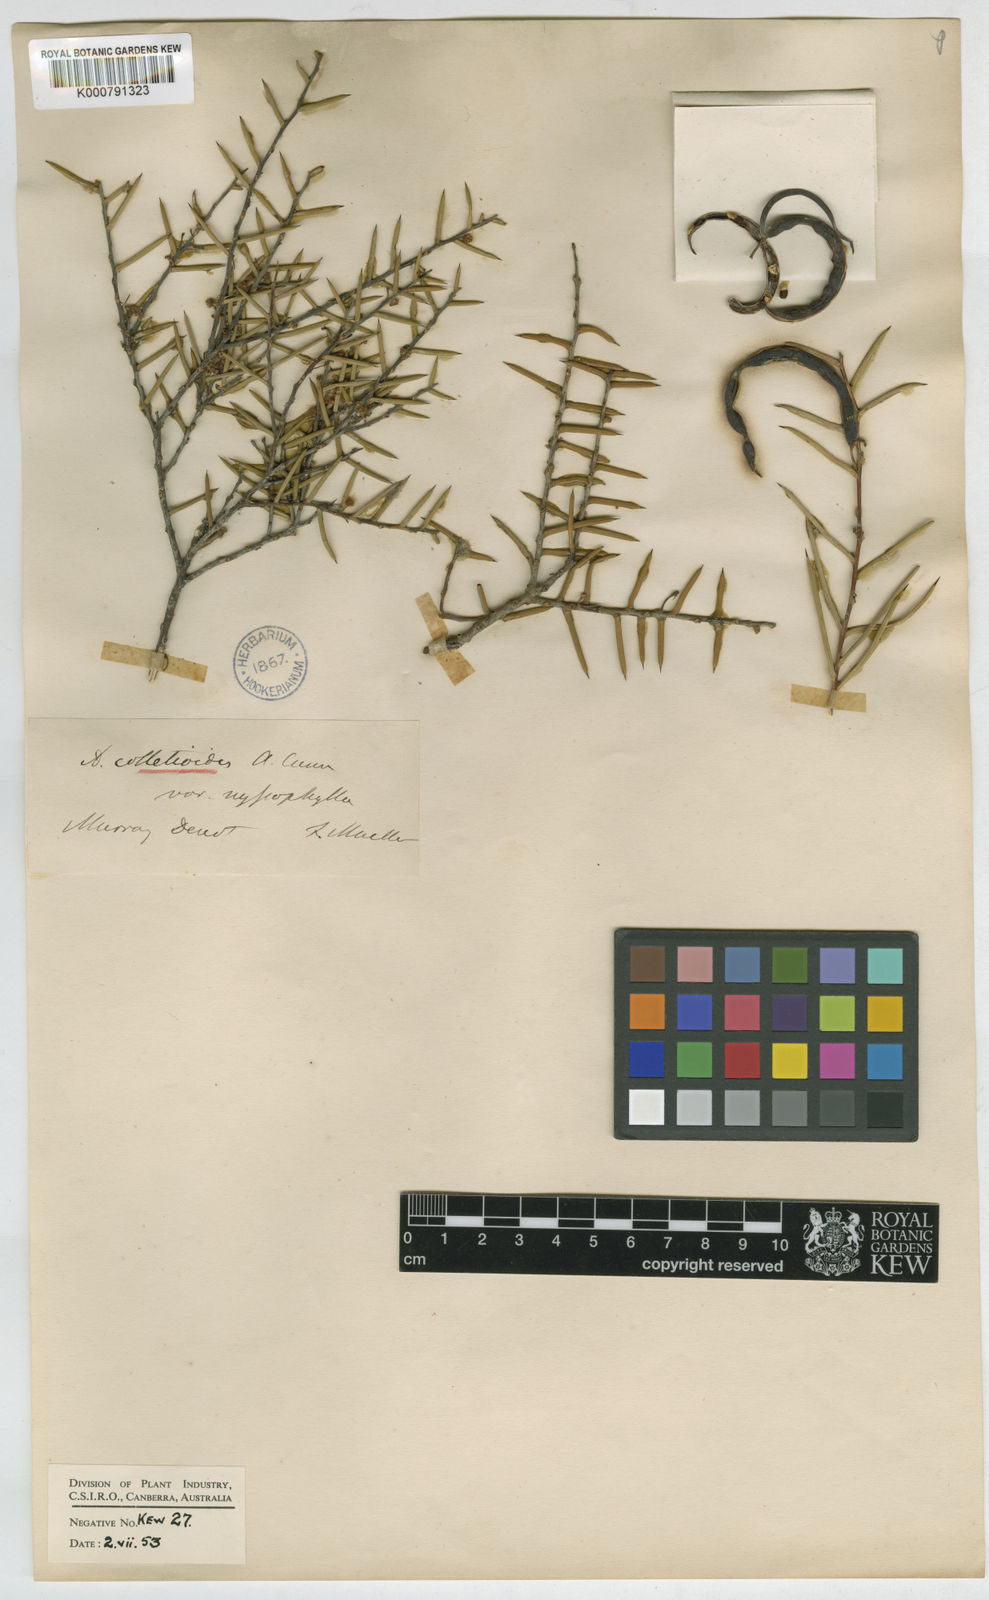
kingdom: Plantae
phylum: Tracheophyta
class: Magnoliopsida
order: Fabales
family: Fabaceae
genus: Acacia
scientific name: Acacia nyssophylla
